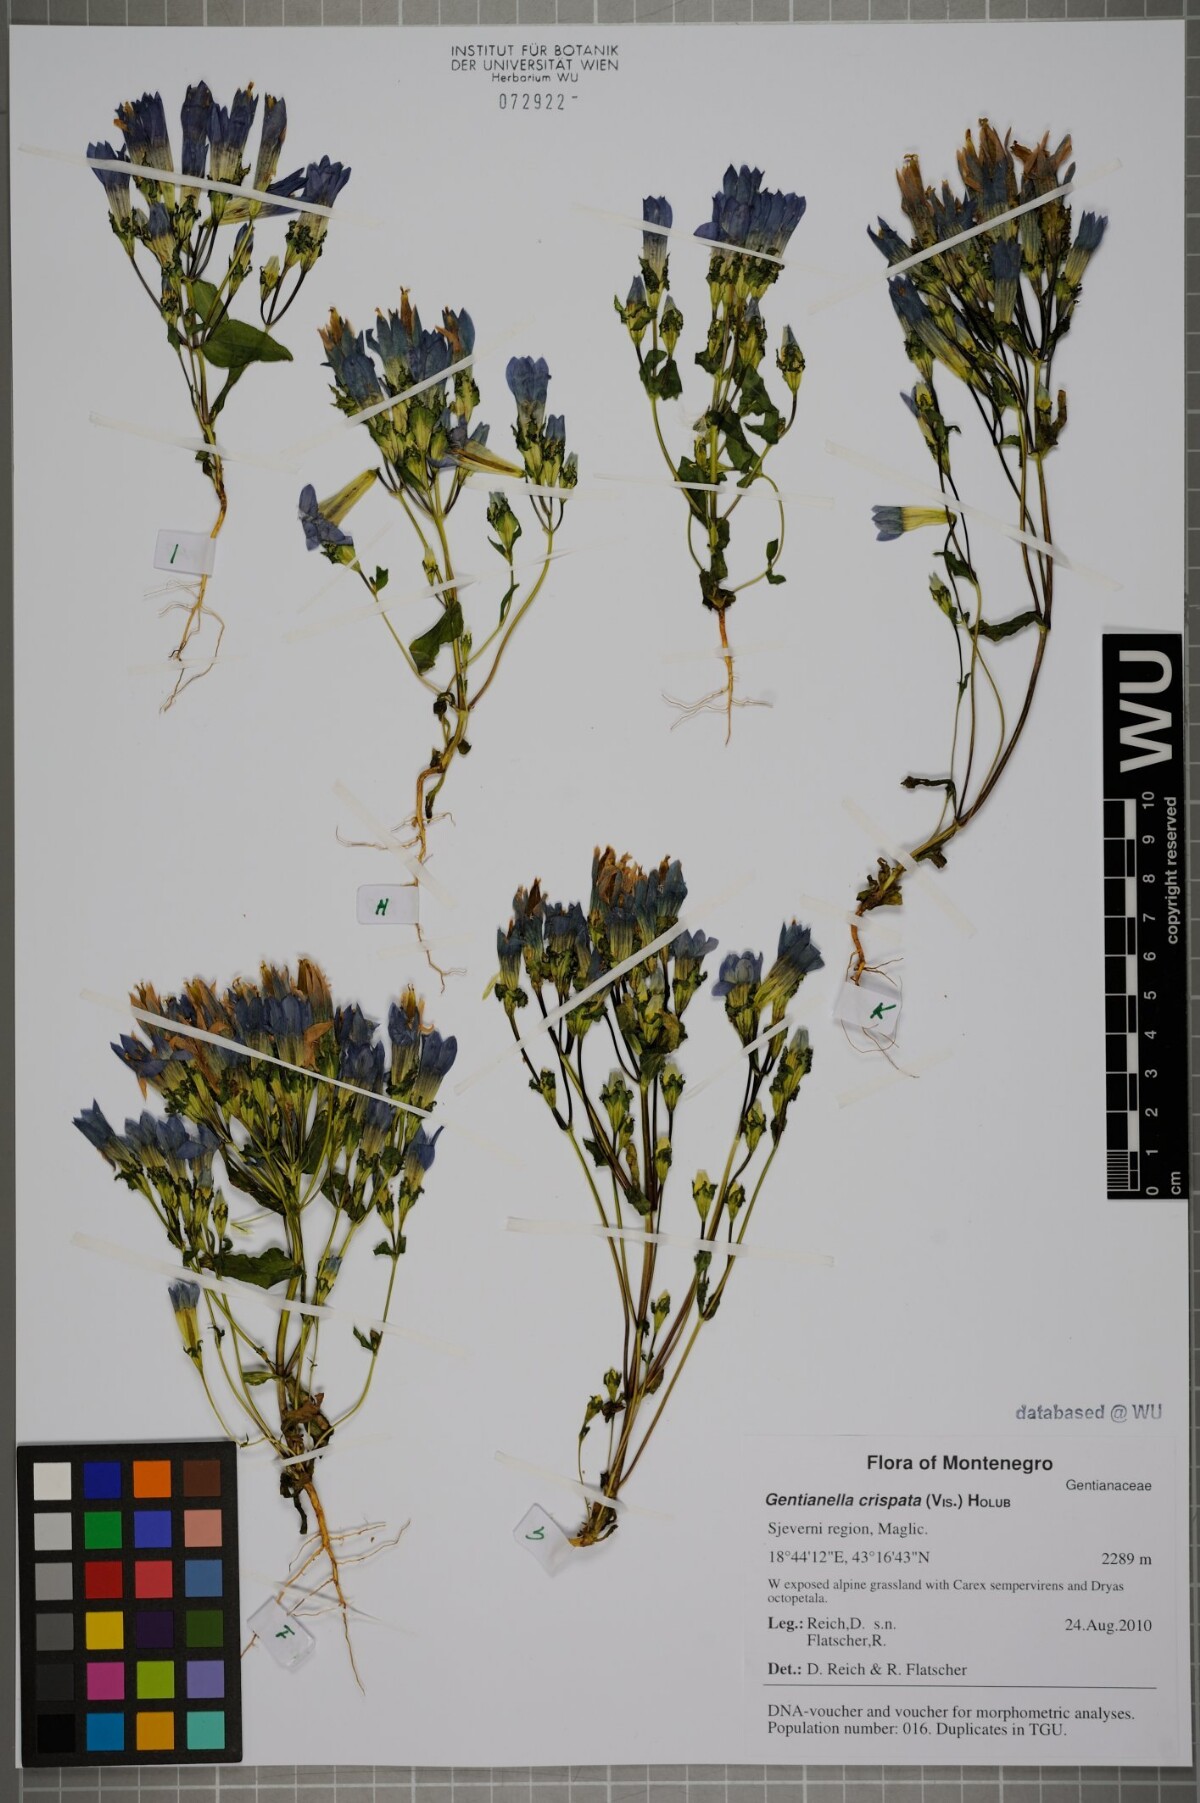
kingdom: Plantae
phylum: Tracheophyta
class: Magnoliopsida
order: Gentianales
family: Gentianaceae
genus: Gentianella
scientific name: Gentianella crispata
